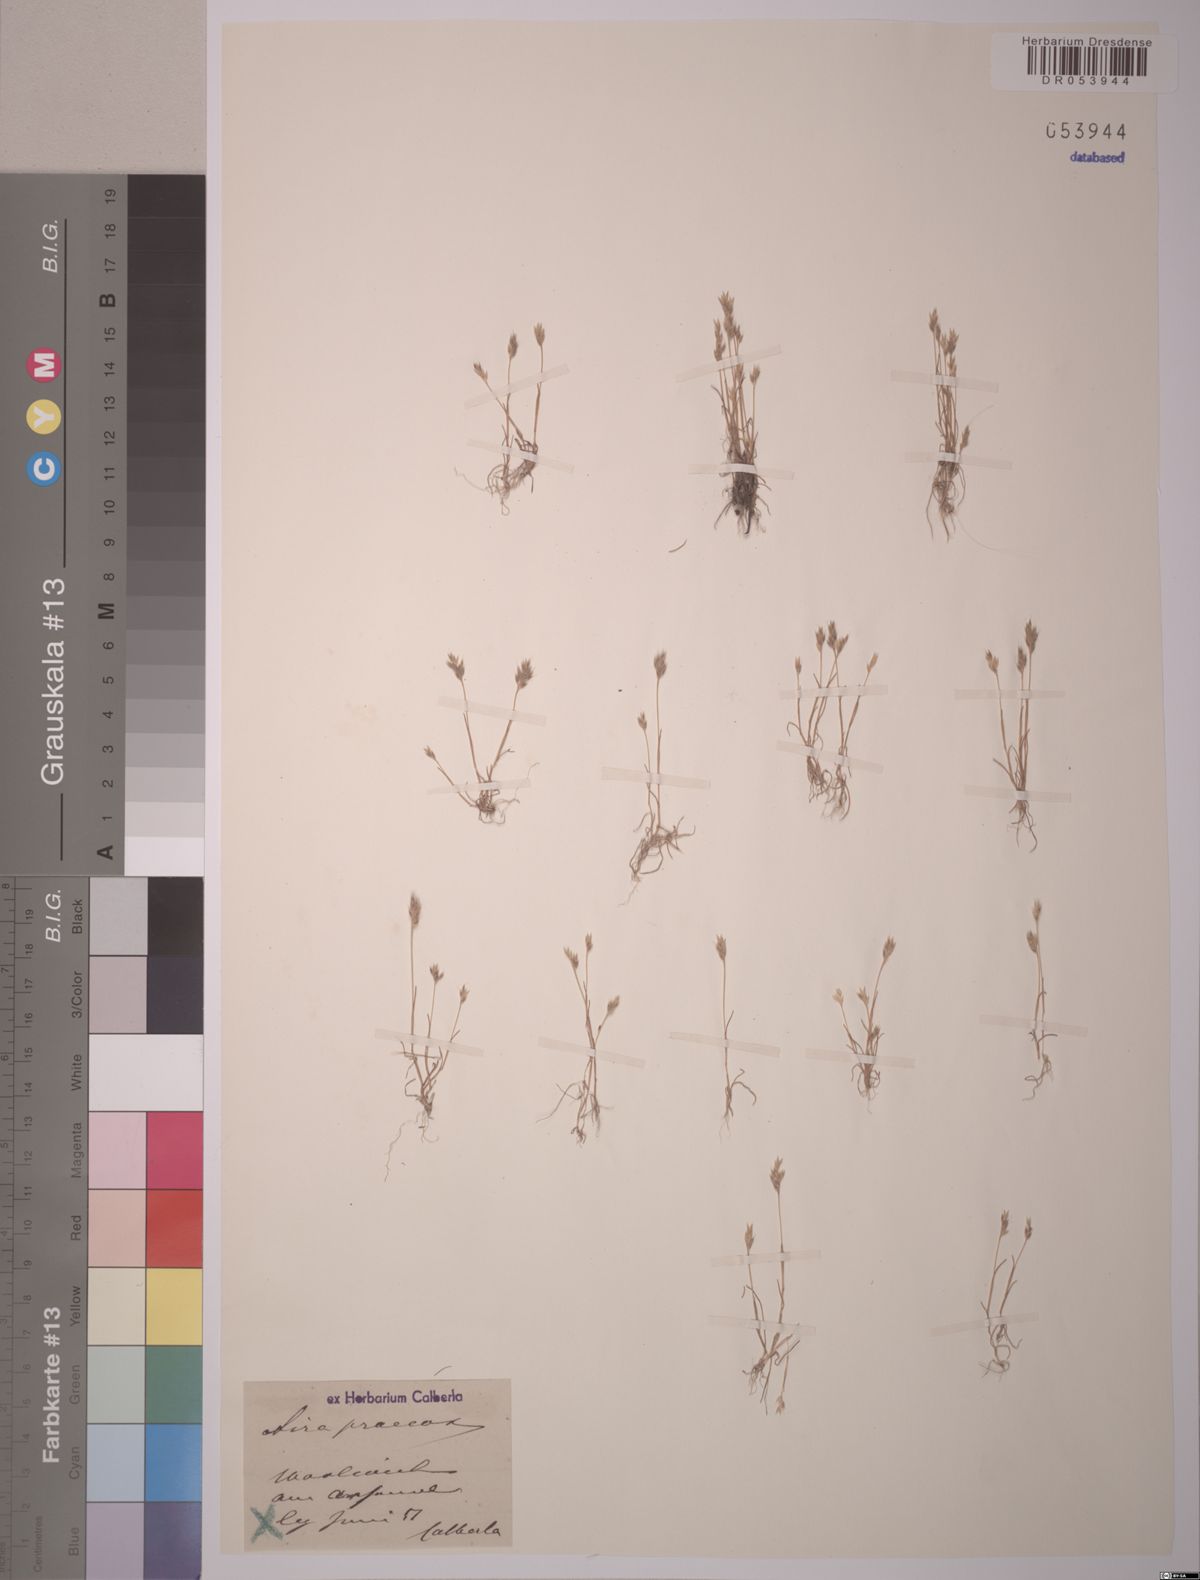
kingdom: Plantae
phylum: Tracheophyta
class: Liliopsida
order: Poales
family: Poaceae
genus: Aira
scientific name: Aira praecox
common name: Early hair-grass
